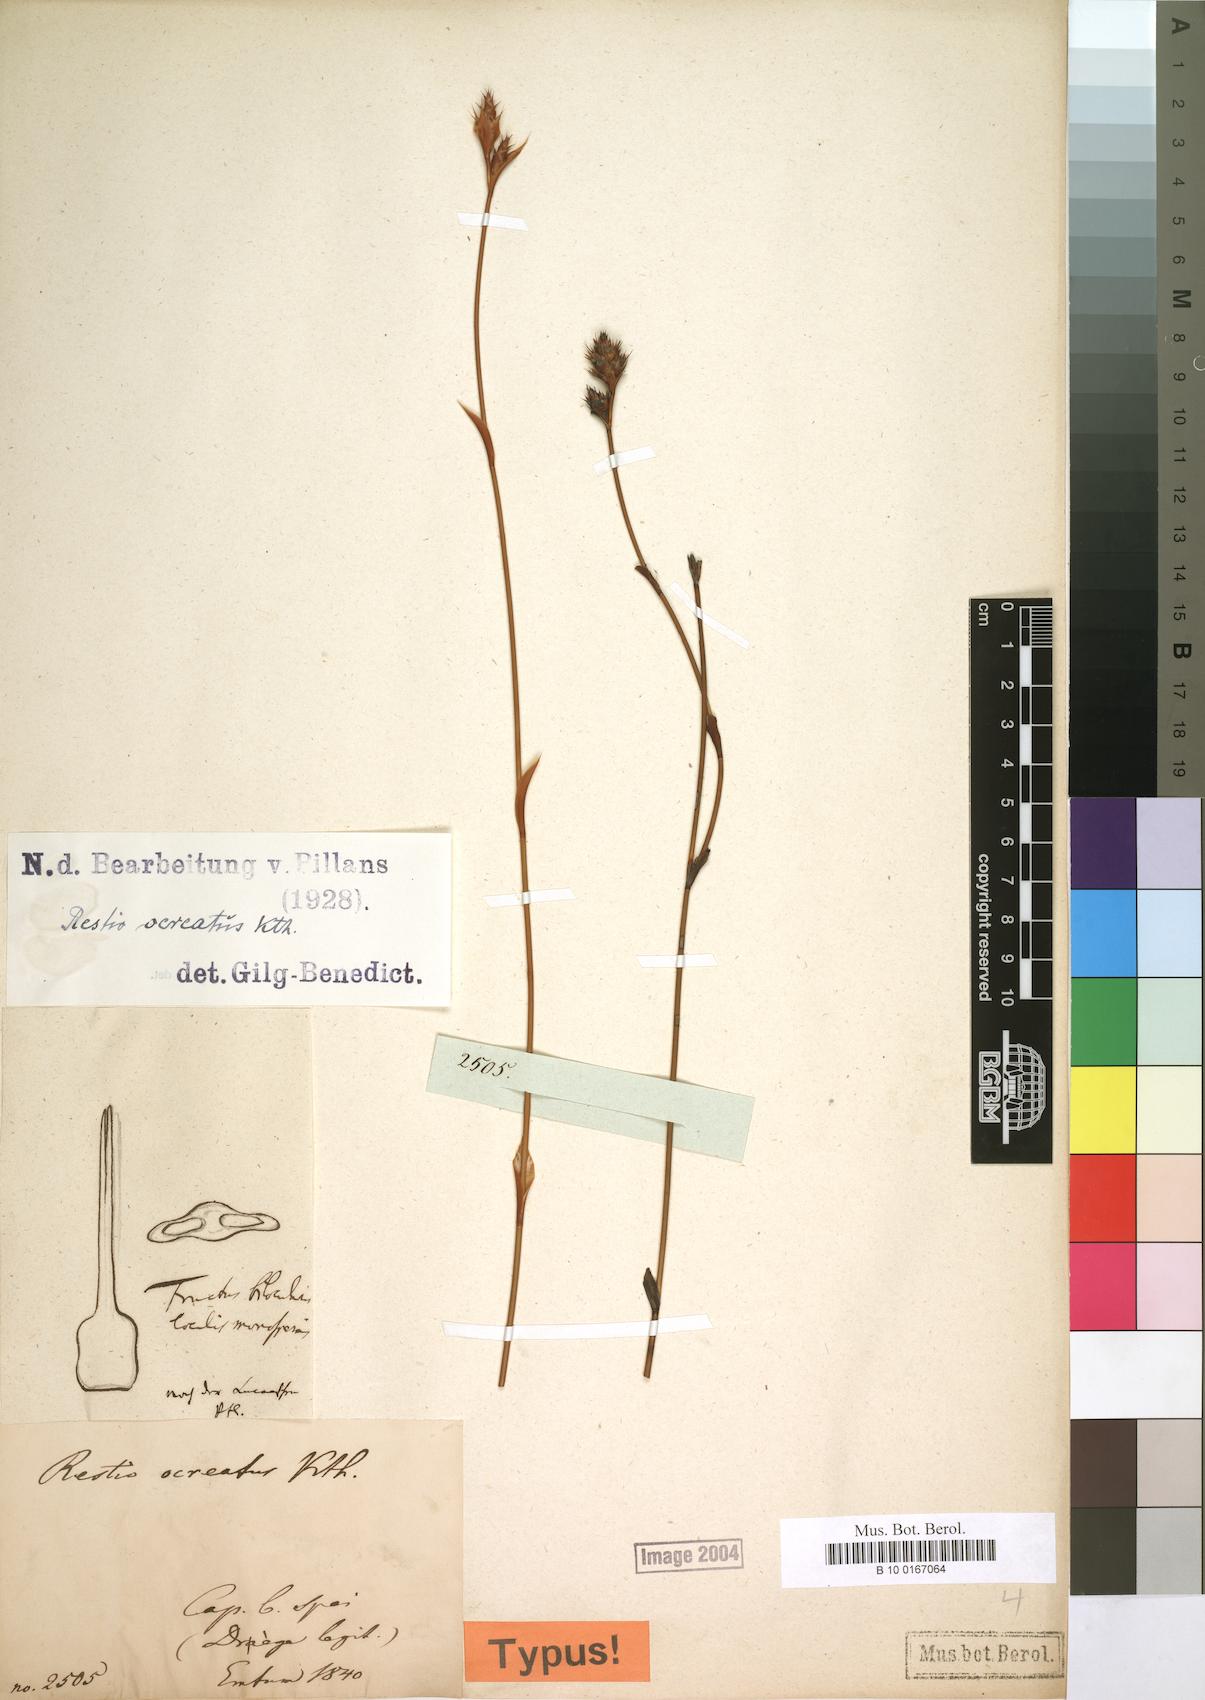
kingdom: Plantae
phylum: Tracheophyta
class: Liliopsida
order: Poales
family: Restionaceae
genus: Restio
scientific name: Restio ocreatus
